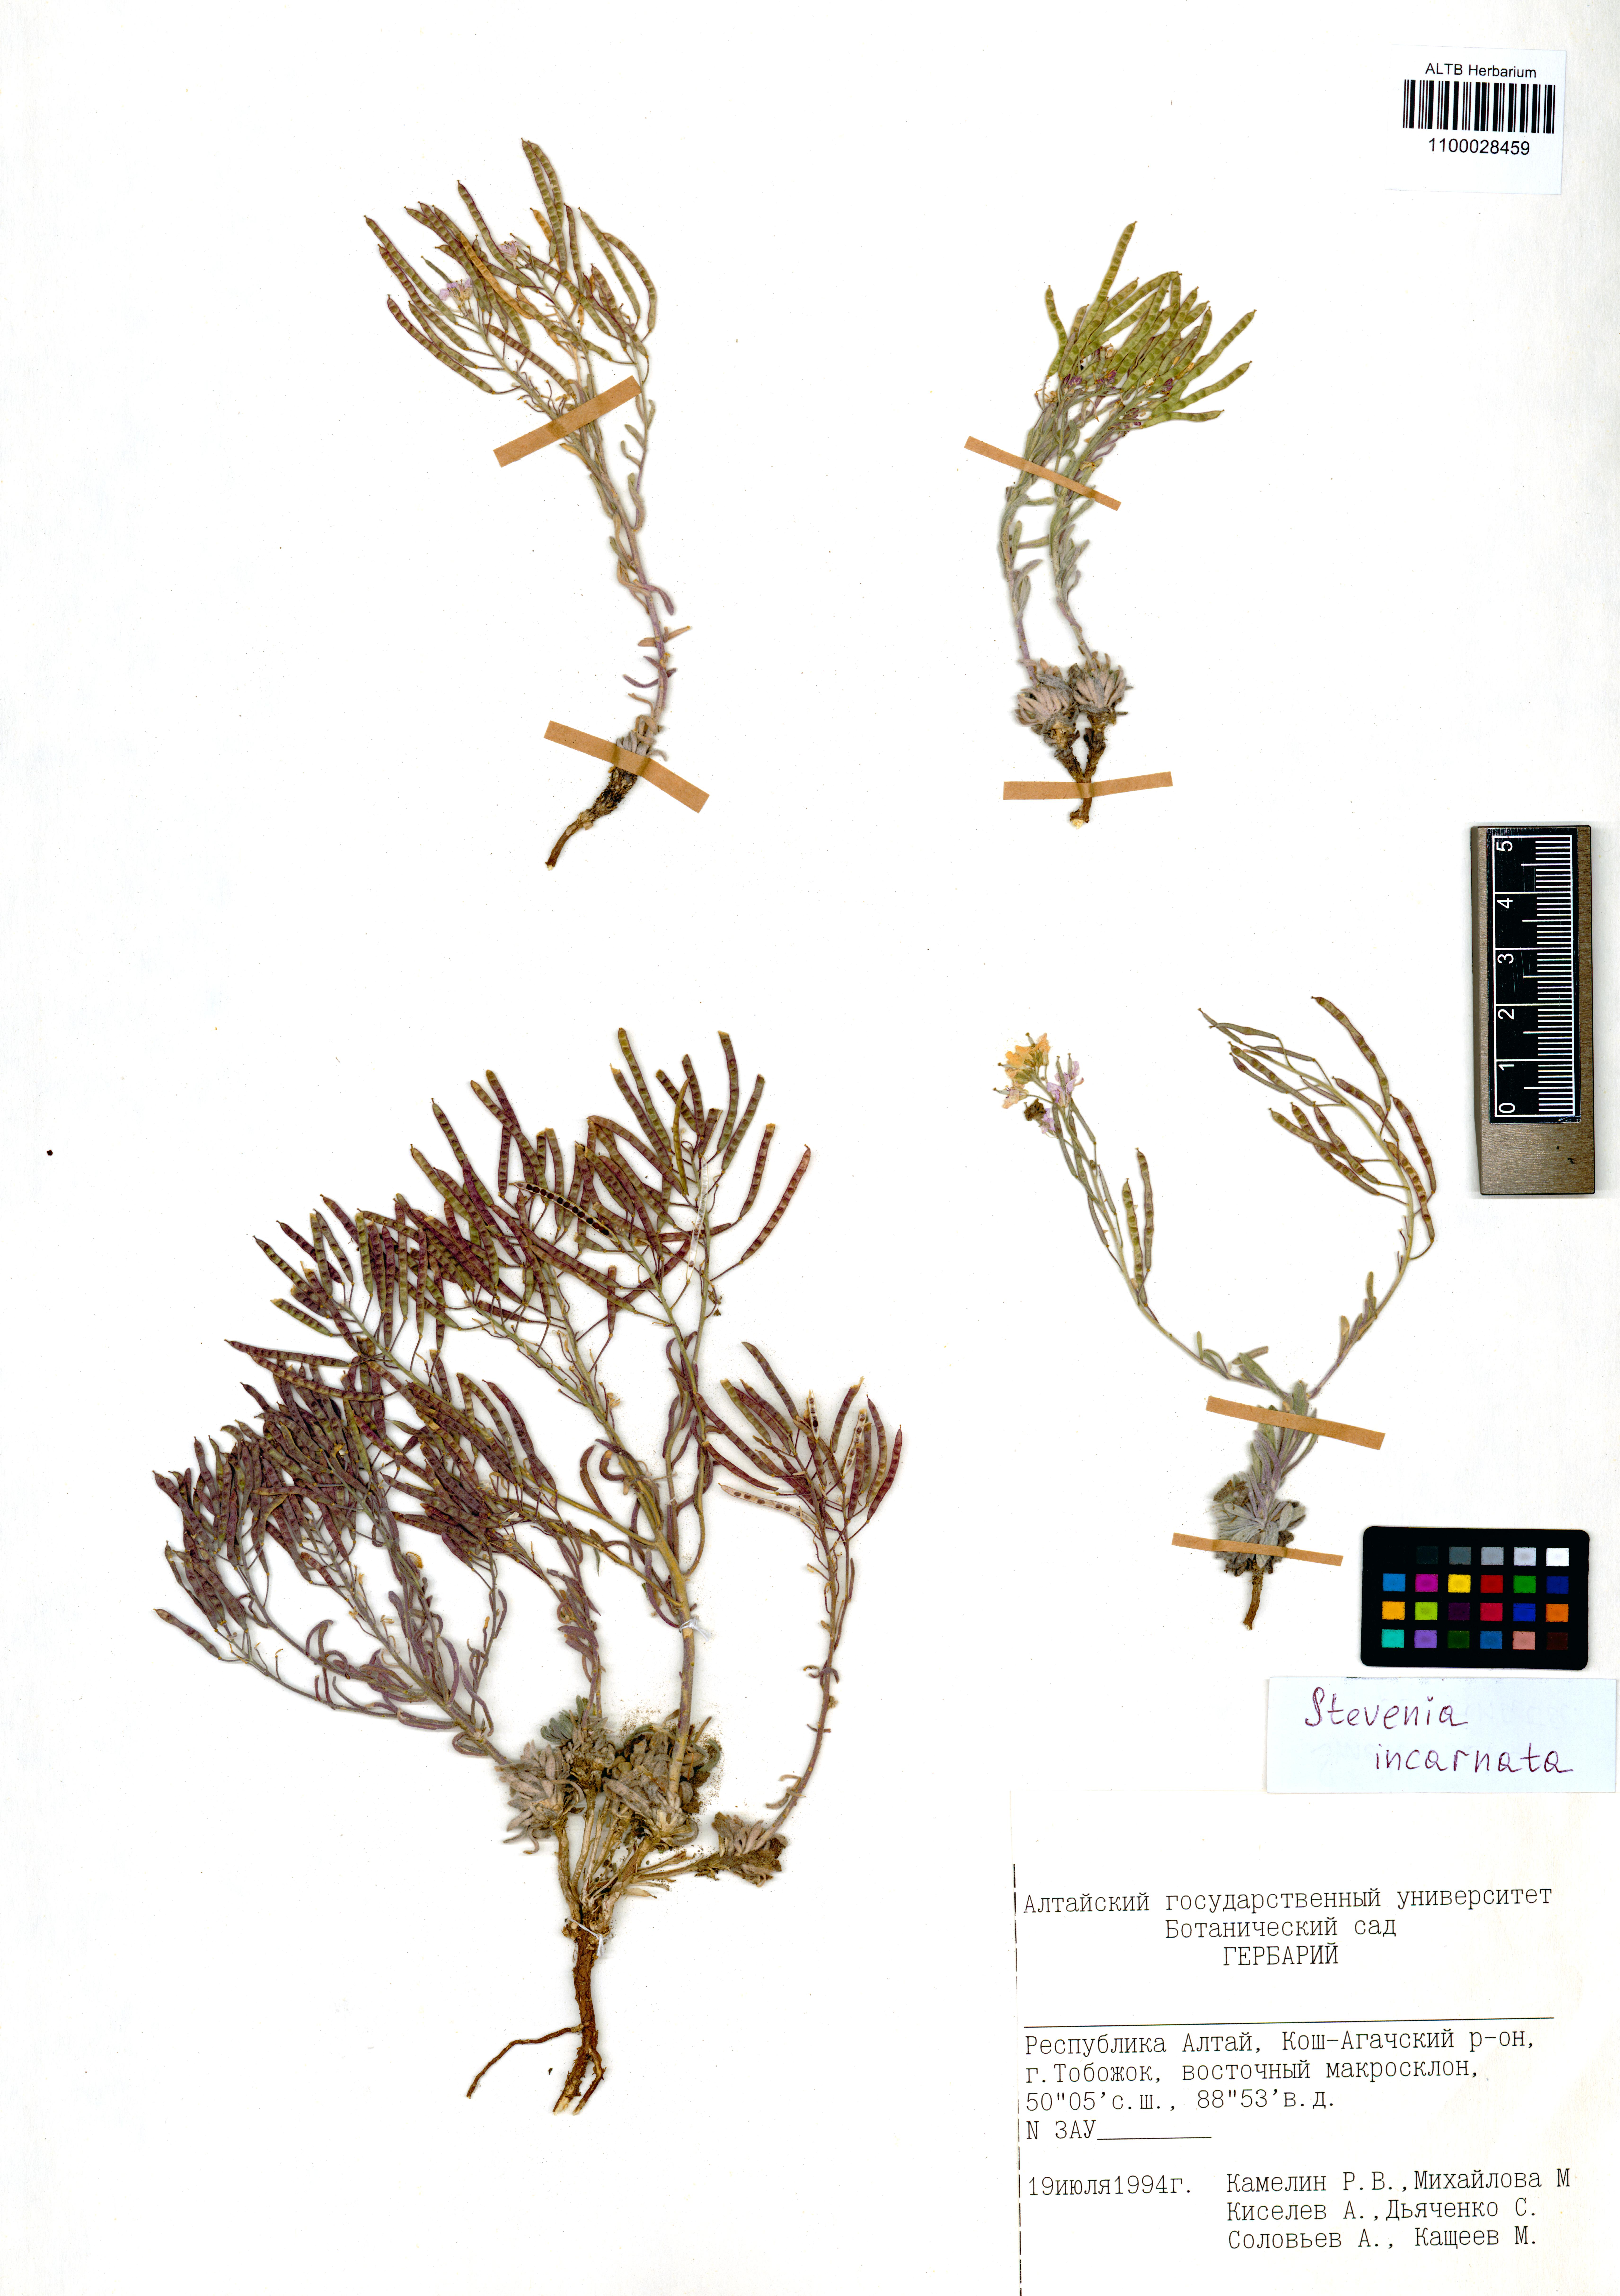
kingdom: Plantae
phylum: Tracheophyta
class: Magnoliopsida
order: Brassicales
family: Brassicaceae
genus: Stevenia
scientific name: Stevenia incarnata
